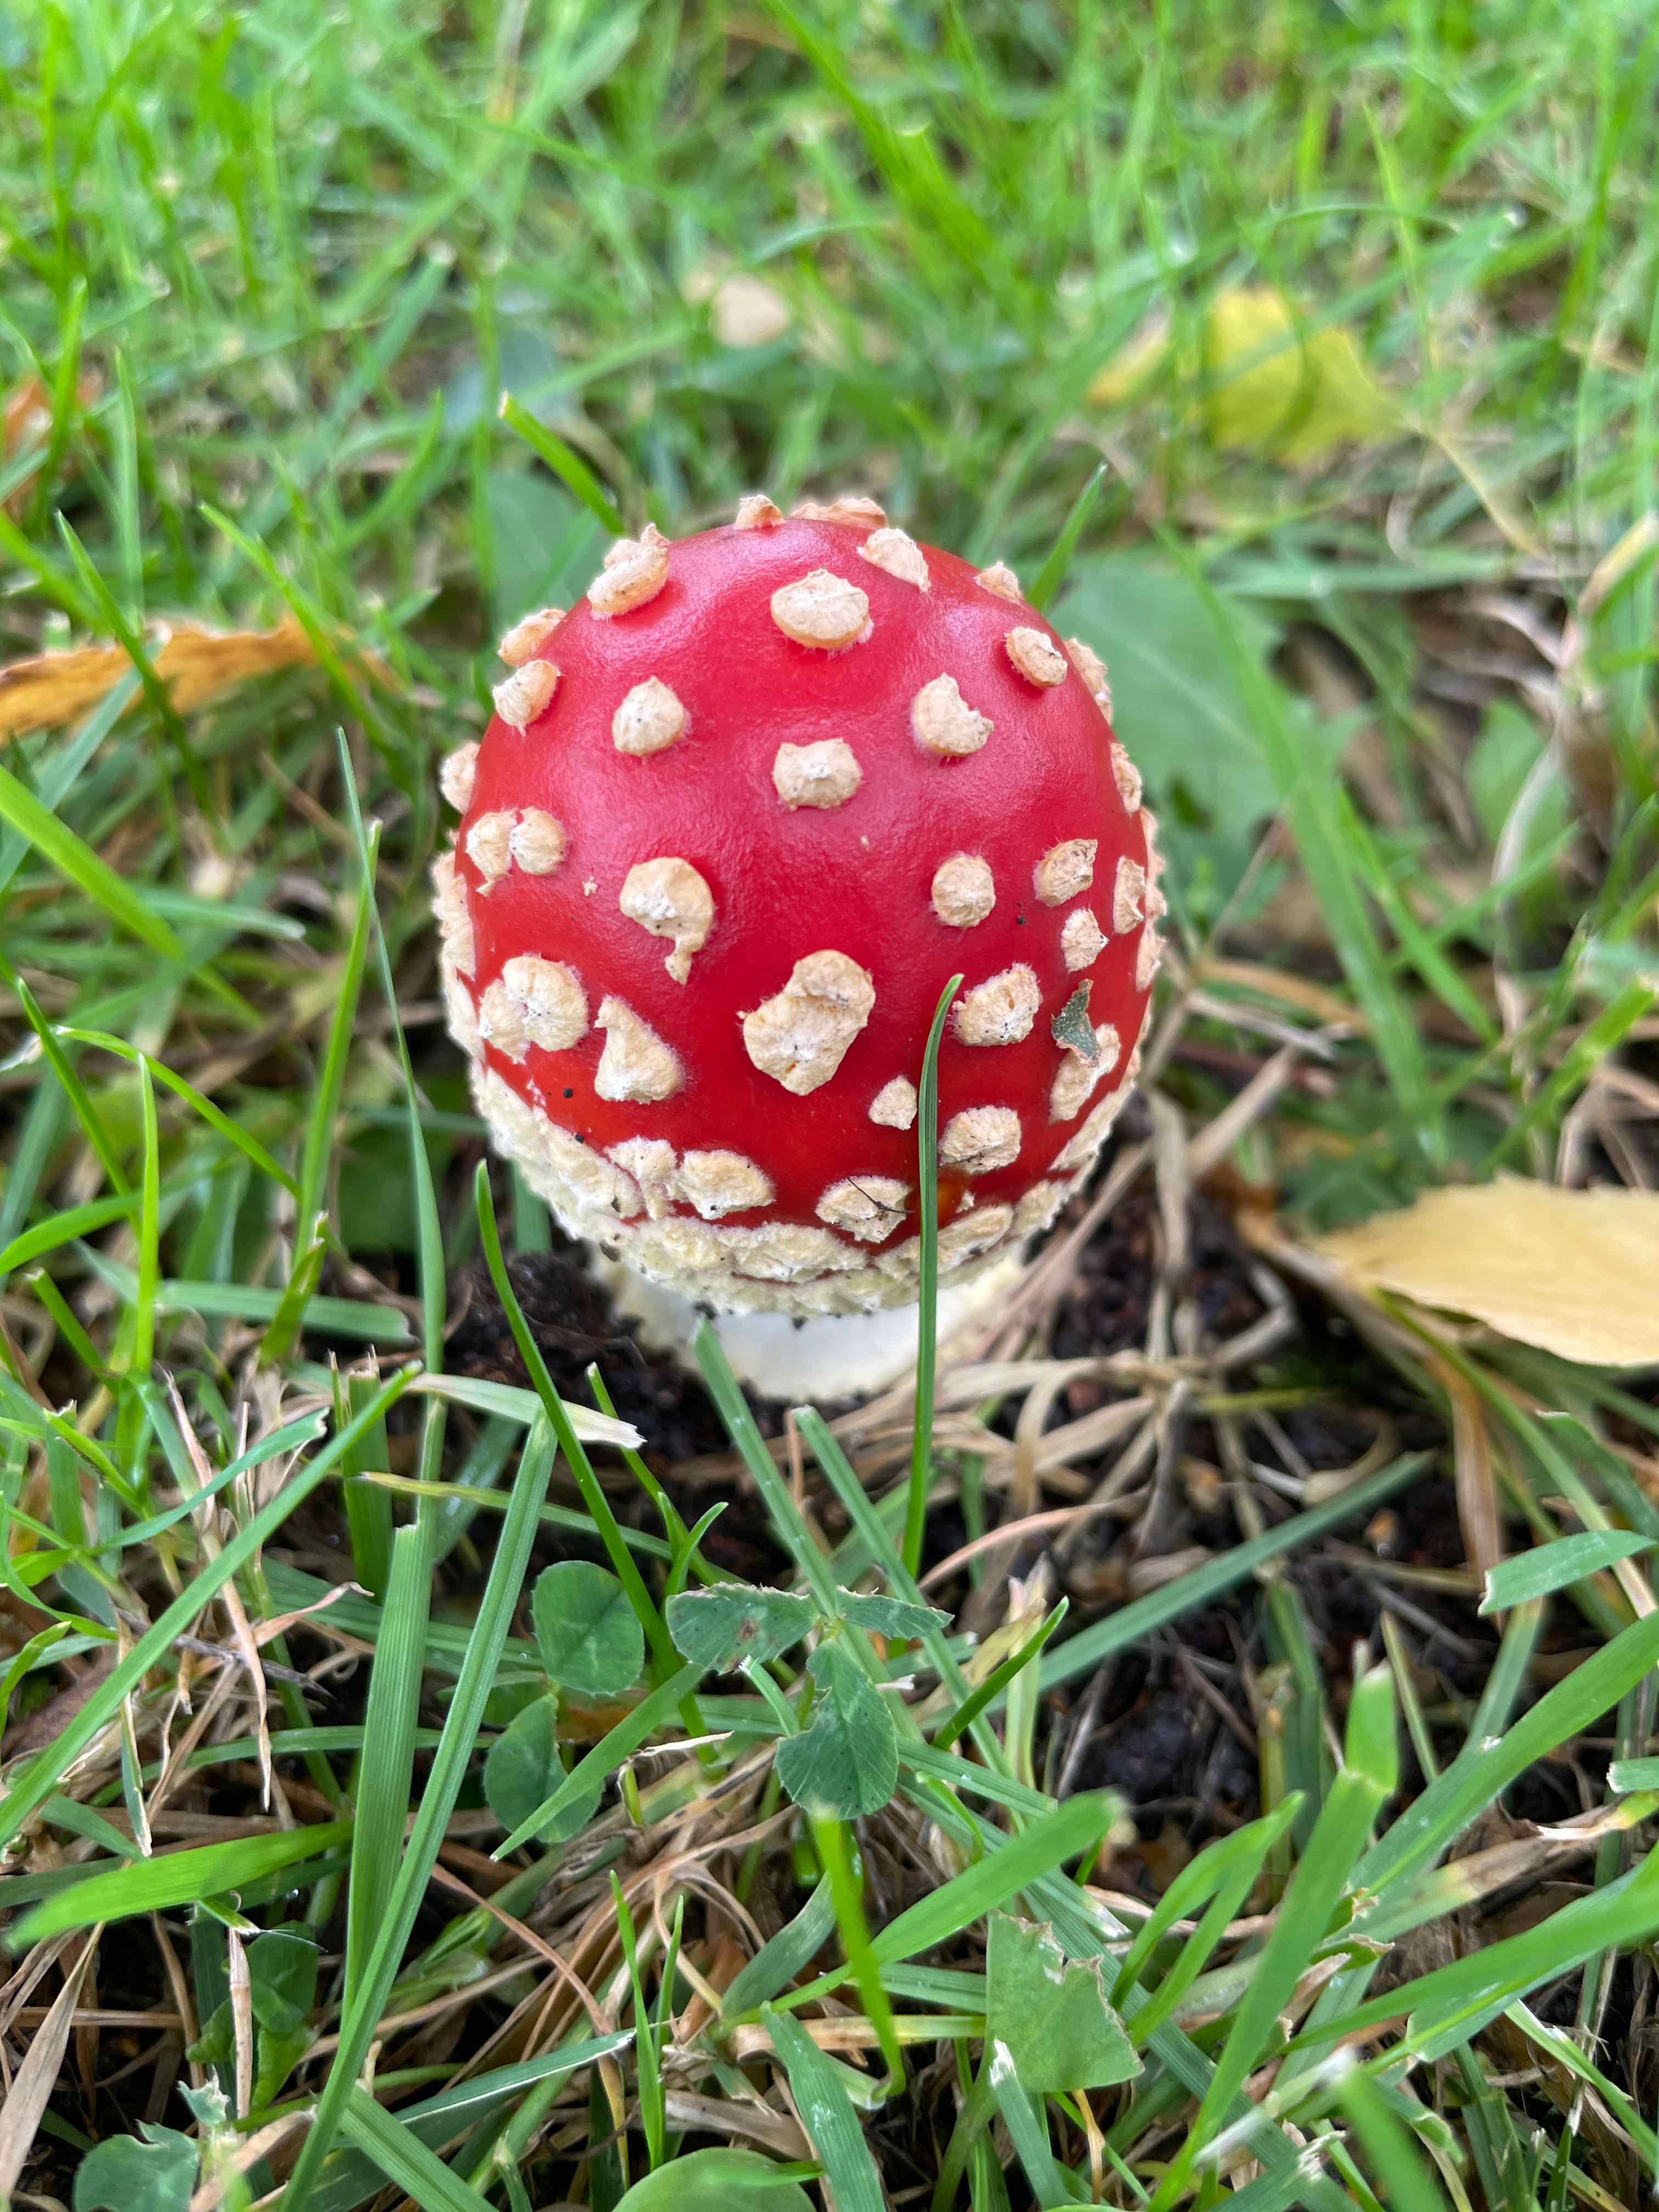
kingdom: Fungi
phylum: Basidiomycota
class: Agaricomycetes
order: Agaricales
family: Amanitaceae
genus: Amanita
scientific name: Amanita muscaria
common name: rød fluesvamp
